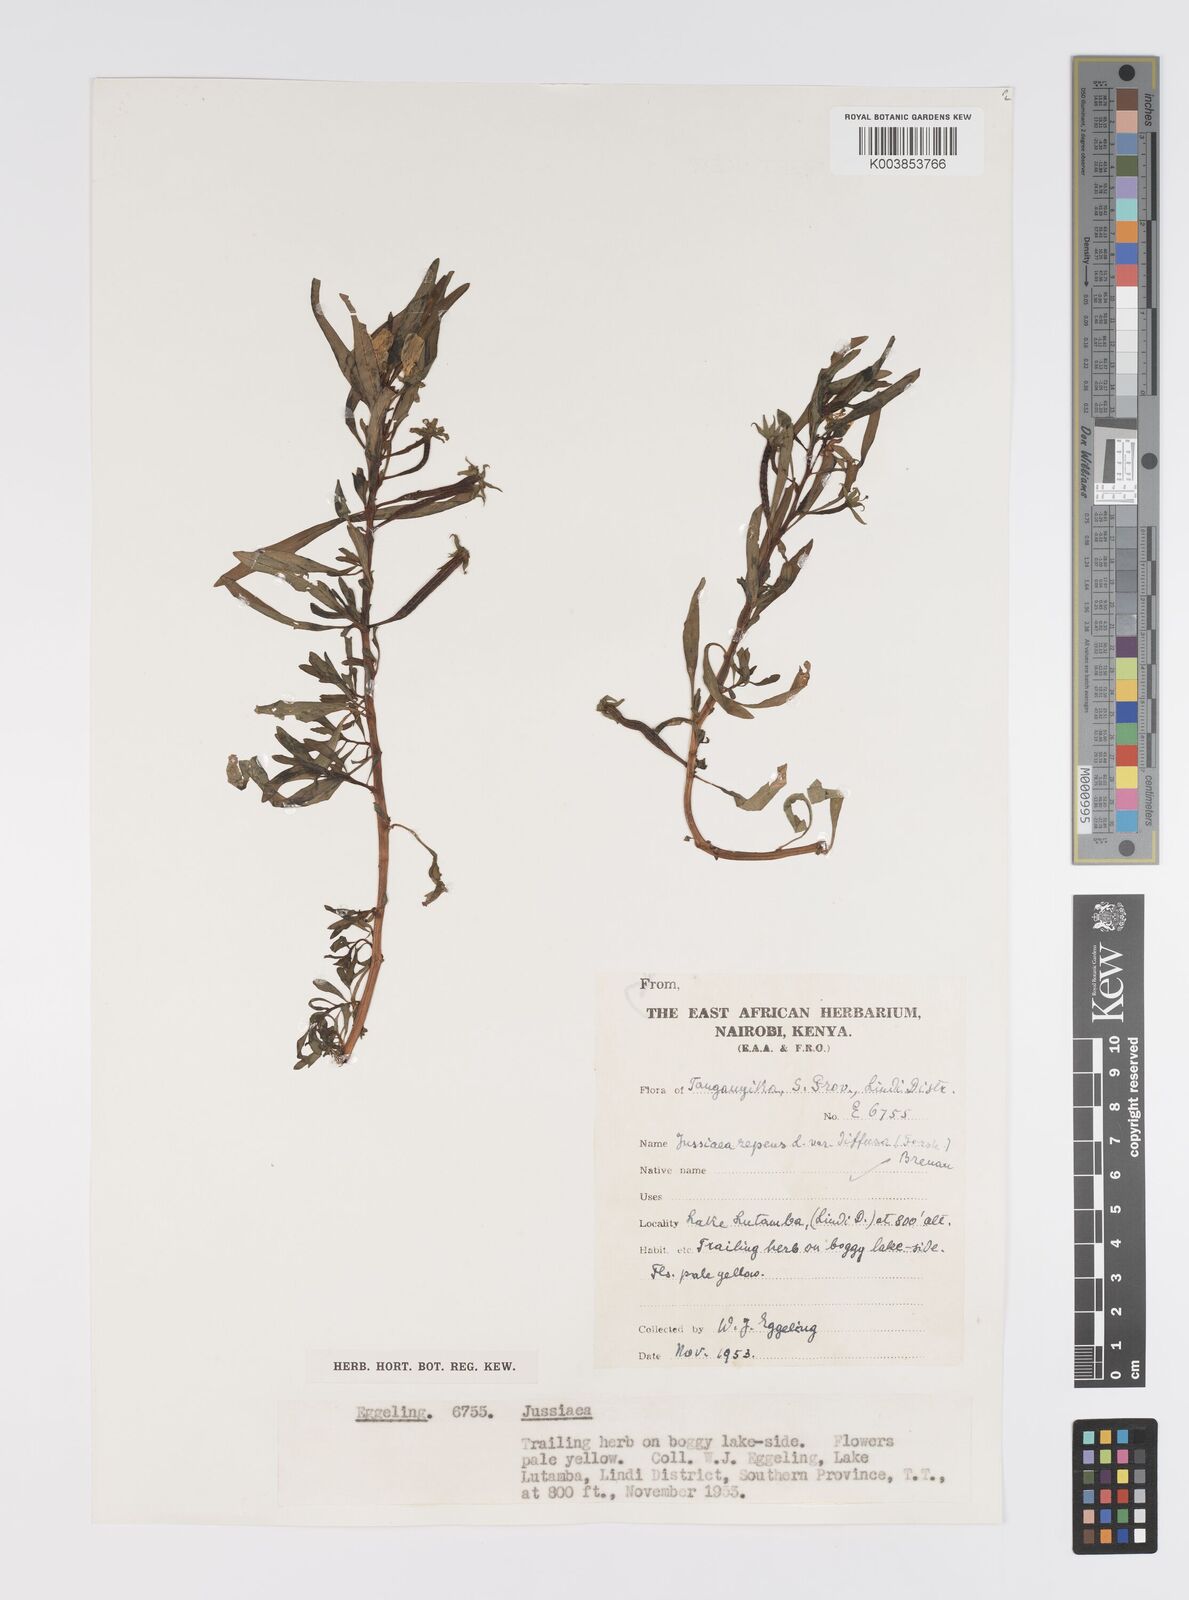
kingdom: Plantae
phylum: Tracheophyta
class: Magnoliopsida
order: Myrtales
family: Onagraceae
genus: Ludwigia
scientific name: Ludwigia repens
